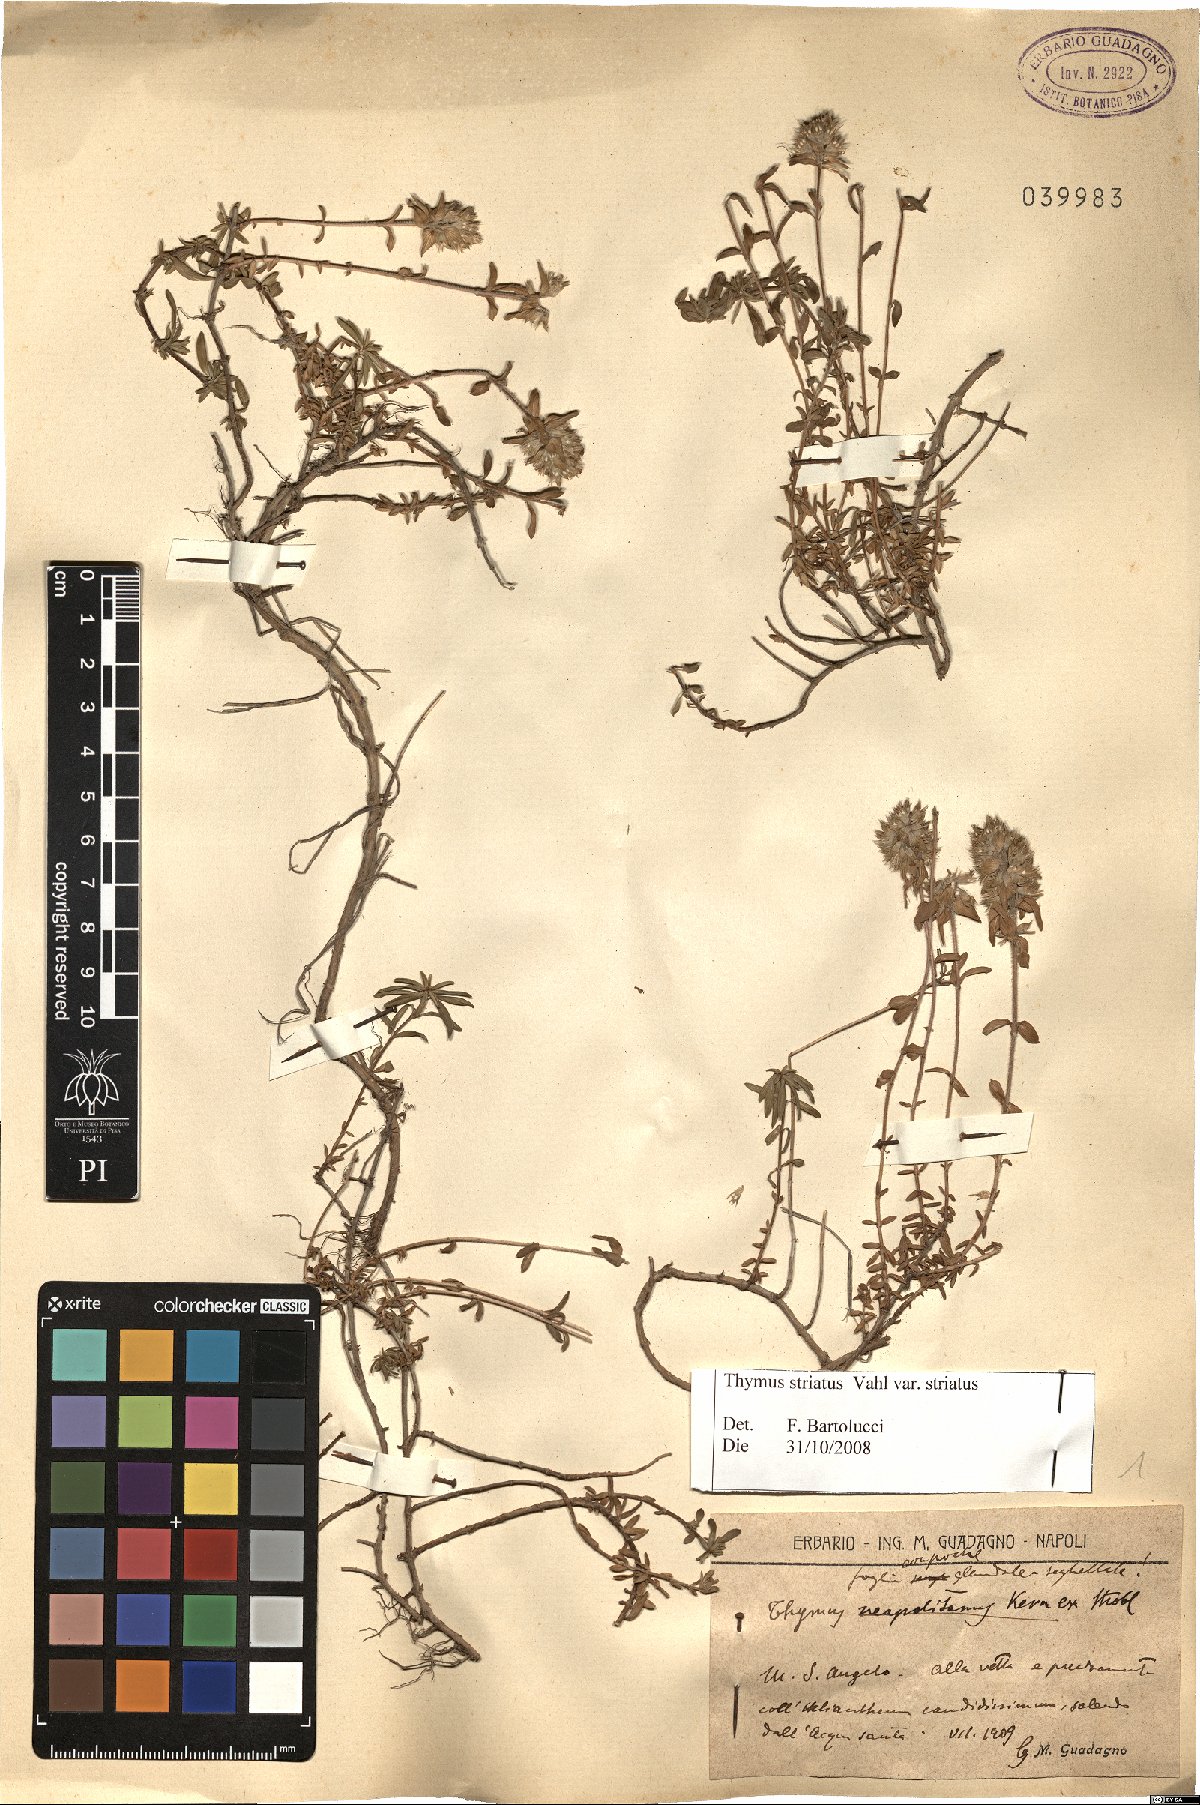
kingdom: Plantae
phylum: Tracheophyta
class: Magnoliopsida
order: Lamiales
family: Lamiaceae
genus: Thymus
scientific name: Thymus striatus
